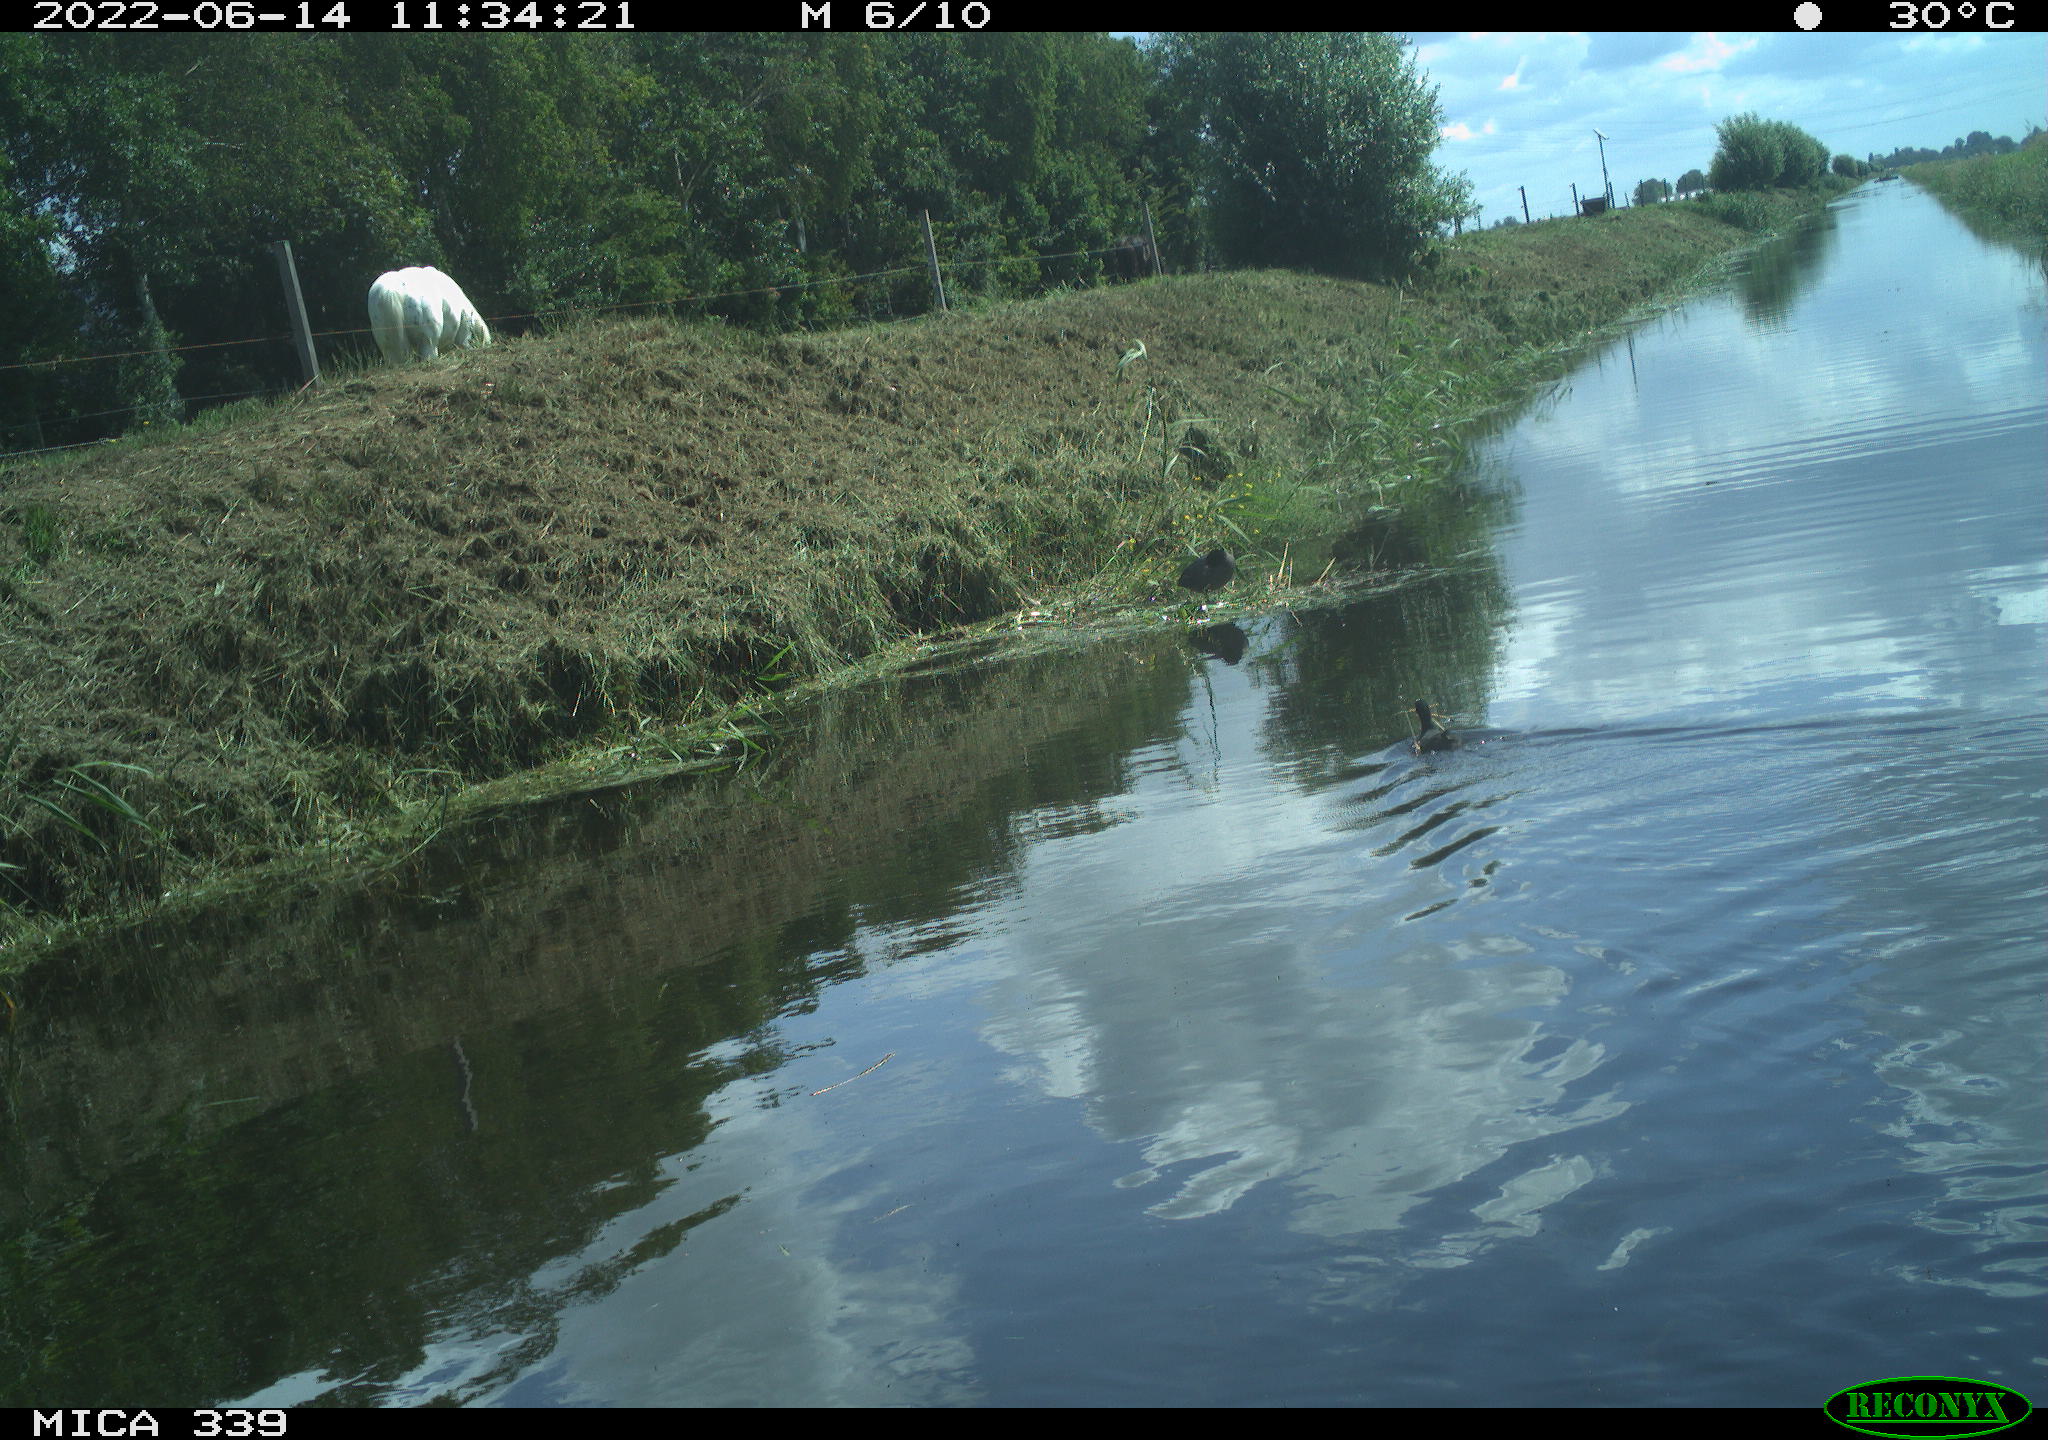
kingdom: Animalia
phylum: Chordata
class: Aves
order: Gruiformes
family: Rallidae
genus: Fulica
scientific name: Fulica atra
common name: Eurasian coot
